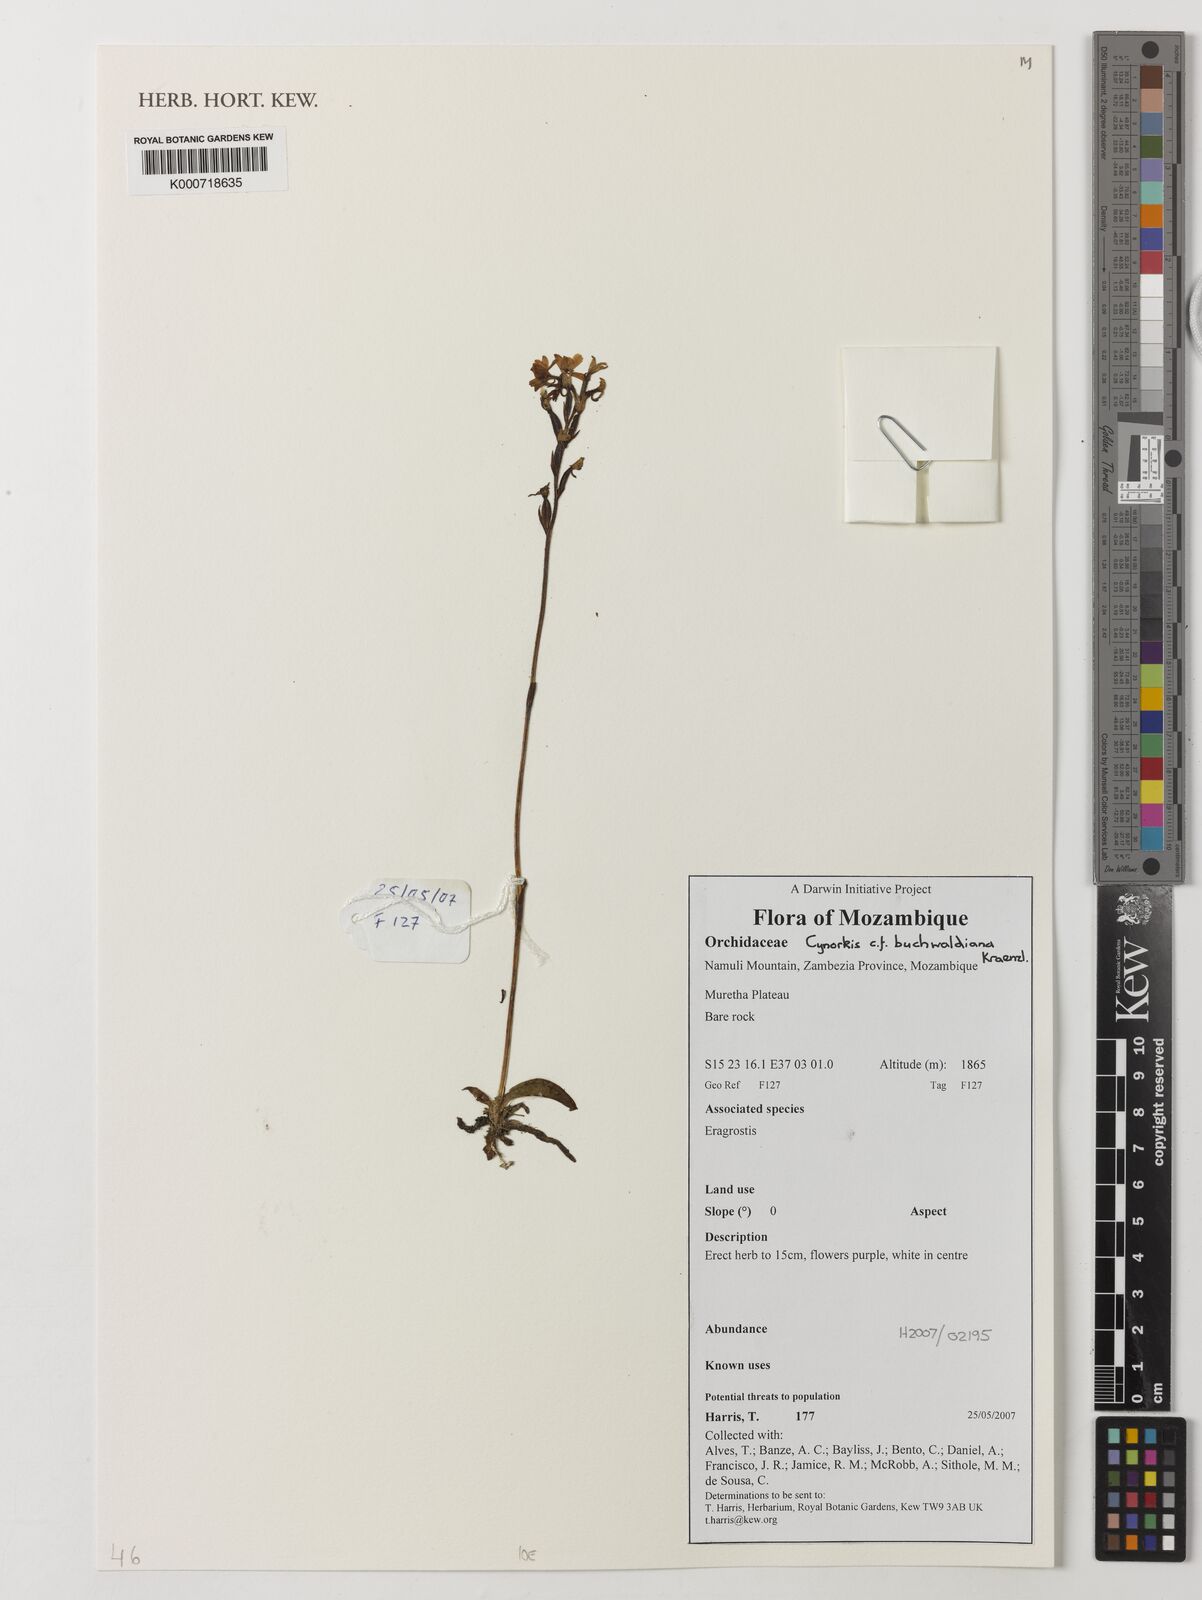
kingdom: Plantae
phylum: Tracheophyta
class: Liliopsida
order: Asparagales
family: Orchidaceae
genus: Cynorkis
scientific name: Cynorkis buchwaldiana
